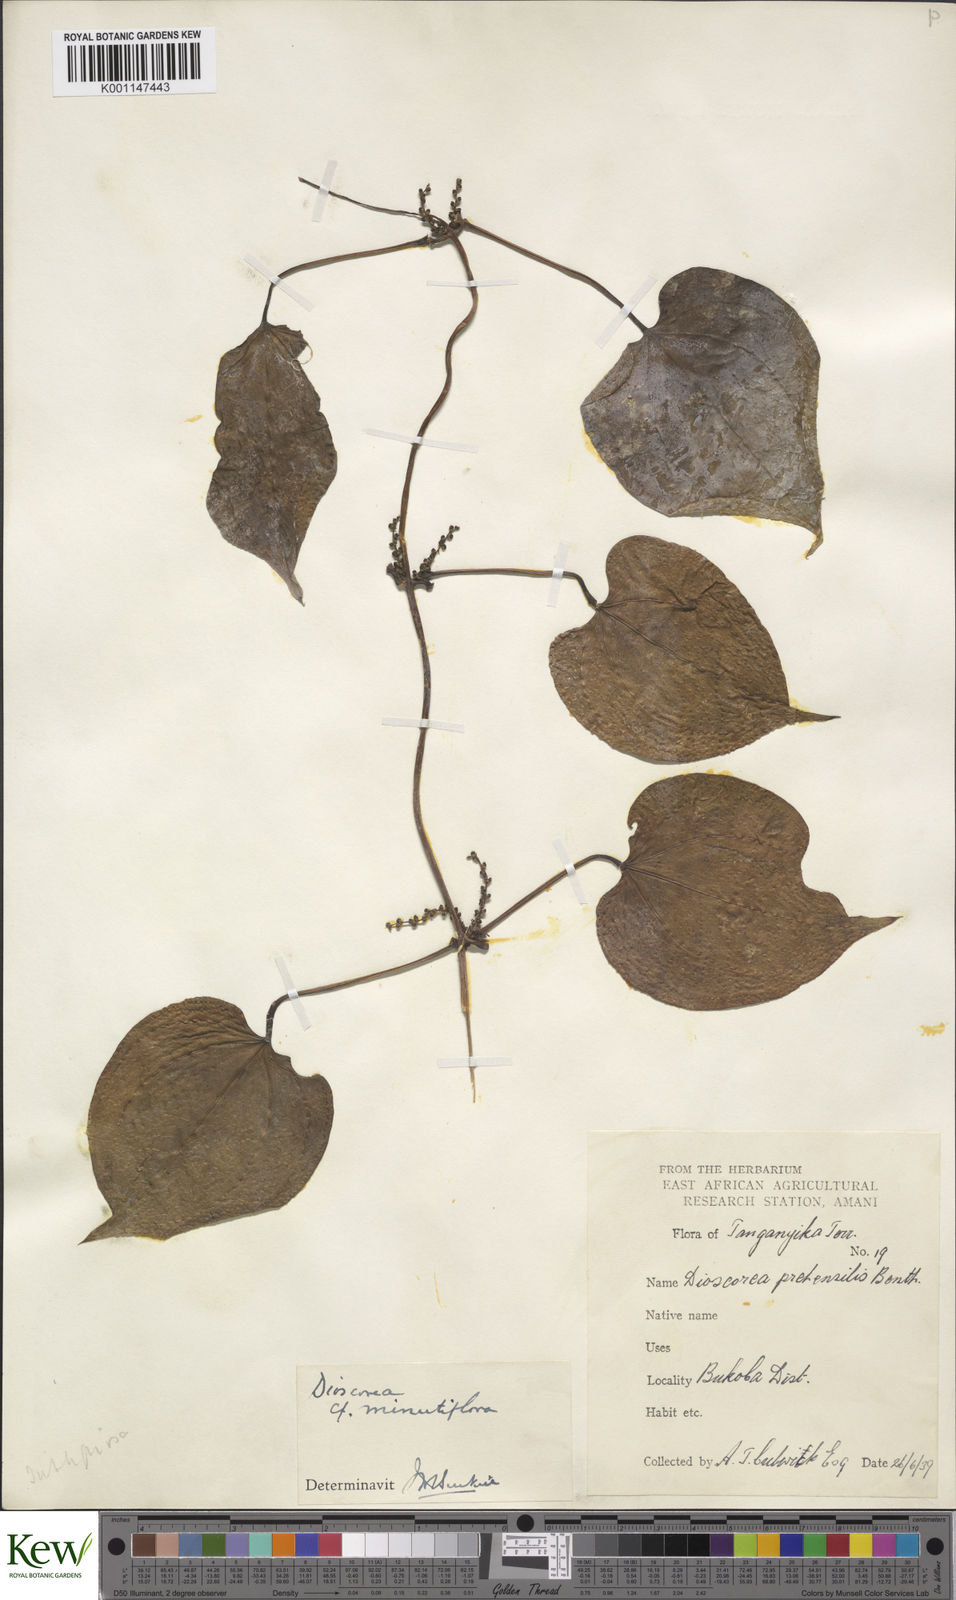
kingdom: Plantae
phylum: Tracheophyta
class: Liliopsida
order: Dioscoreales
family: Dioscoreaceae
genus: Dioscorea
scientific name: Dioscorea minutiflora
